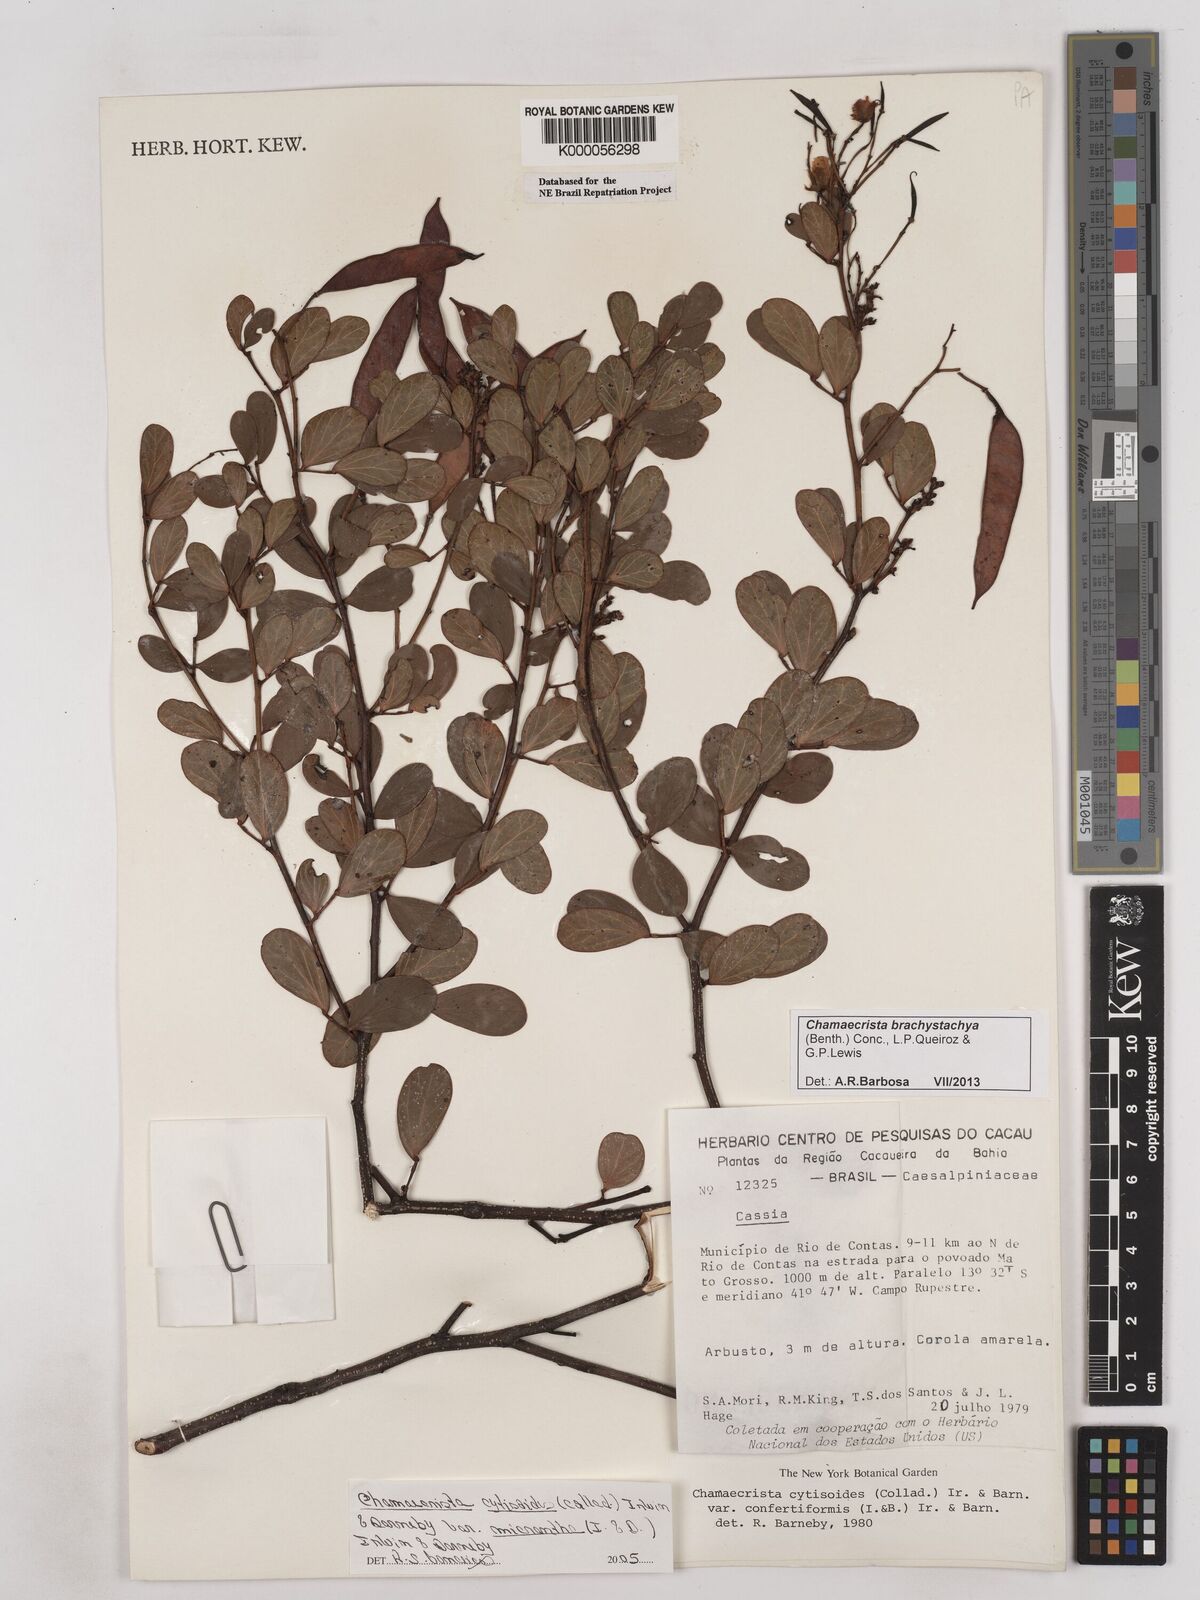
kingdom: Plantae
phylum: Tracheophyta
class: Magnoliopsida
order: Fabales
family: Fabaceae
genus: Chamaecrista
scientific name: Chamaecrista confertiformis
